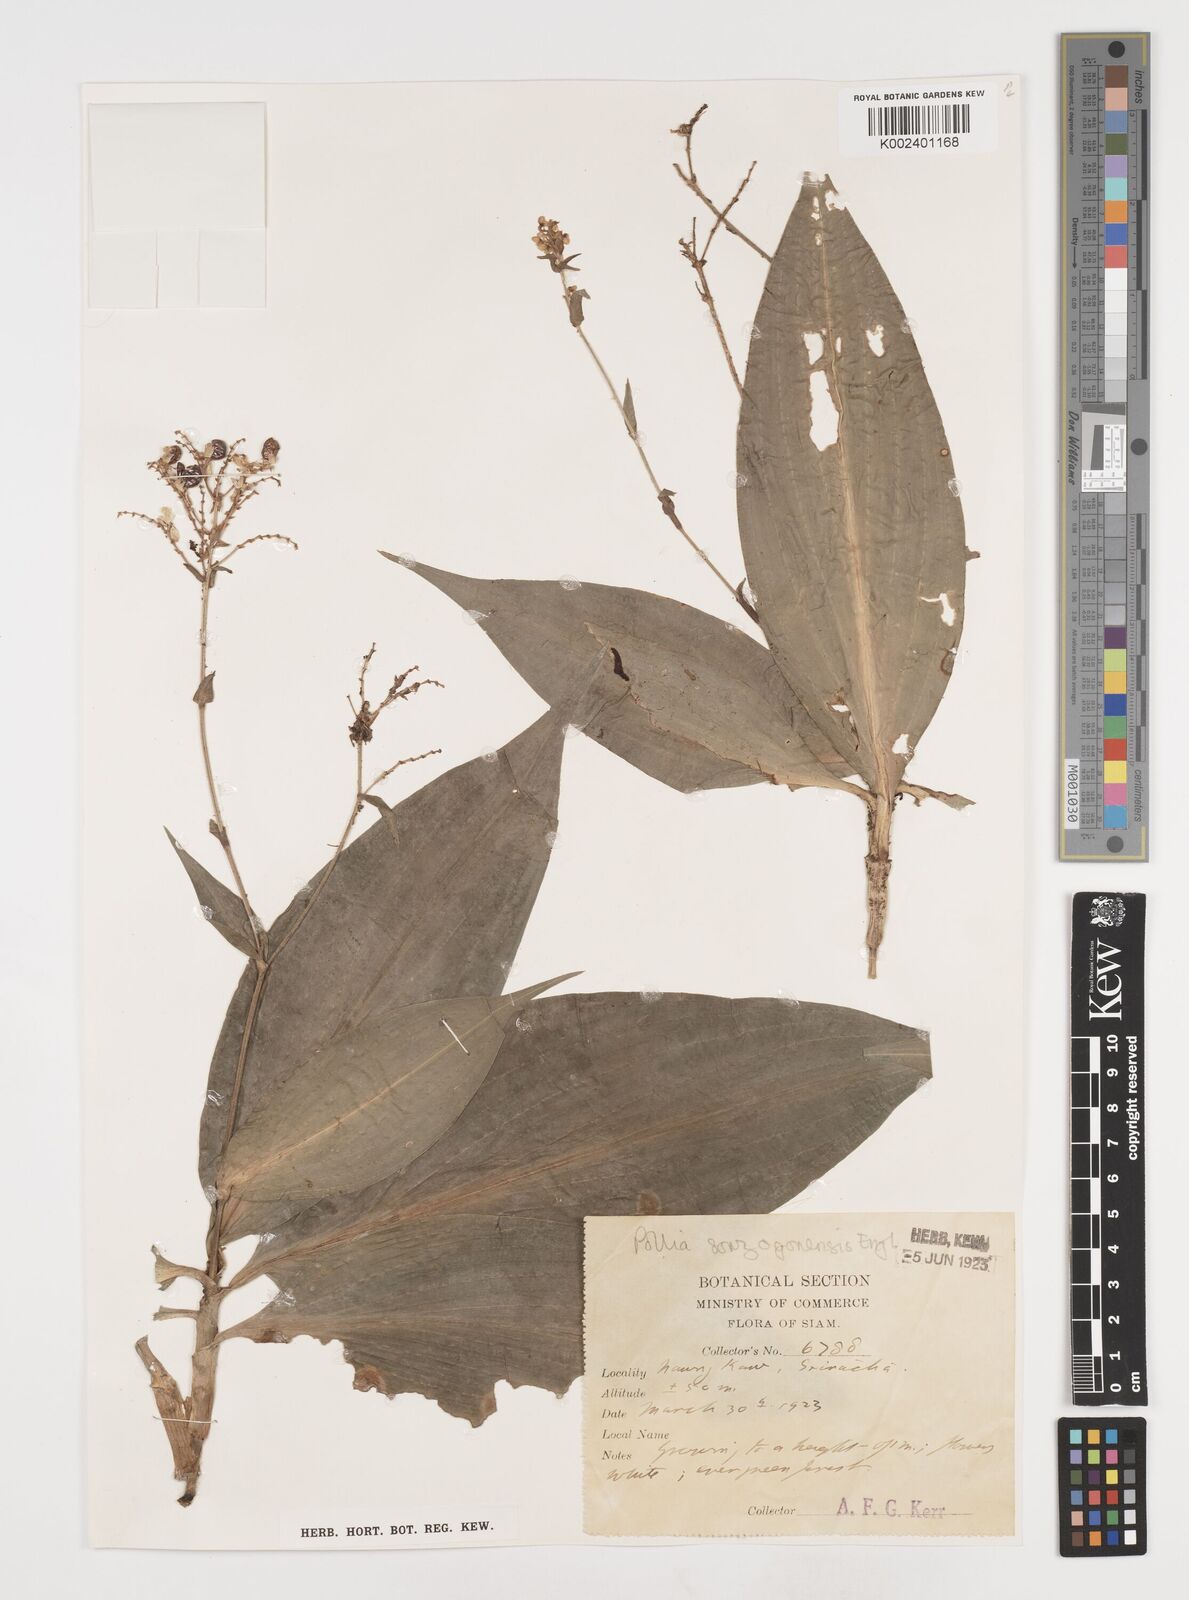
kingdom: Plantae
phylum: Tracheophyta
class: Liliopsida
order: Commelinales
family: Commelinaceae
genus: Pollia
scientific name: Pollia secundiflora
